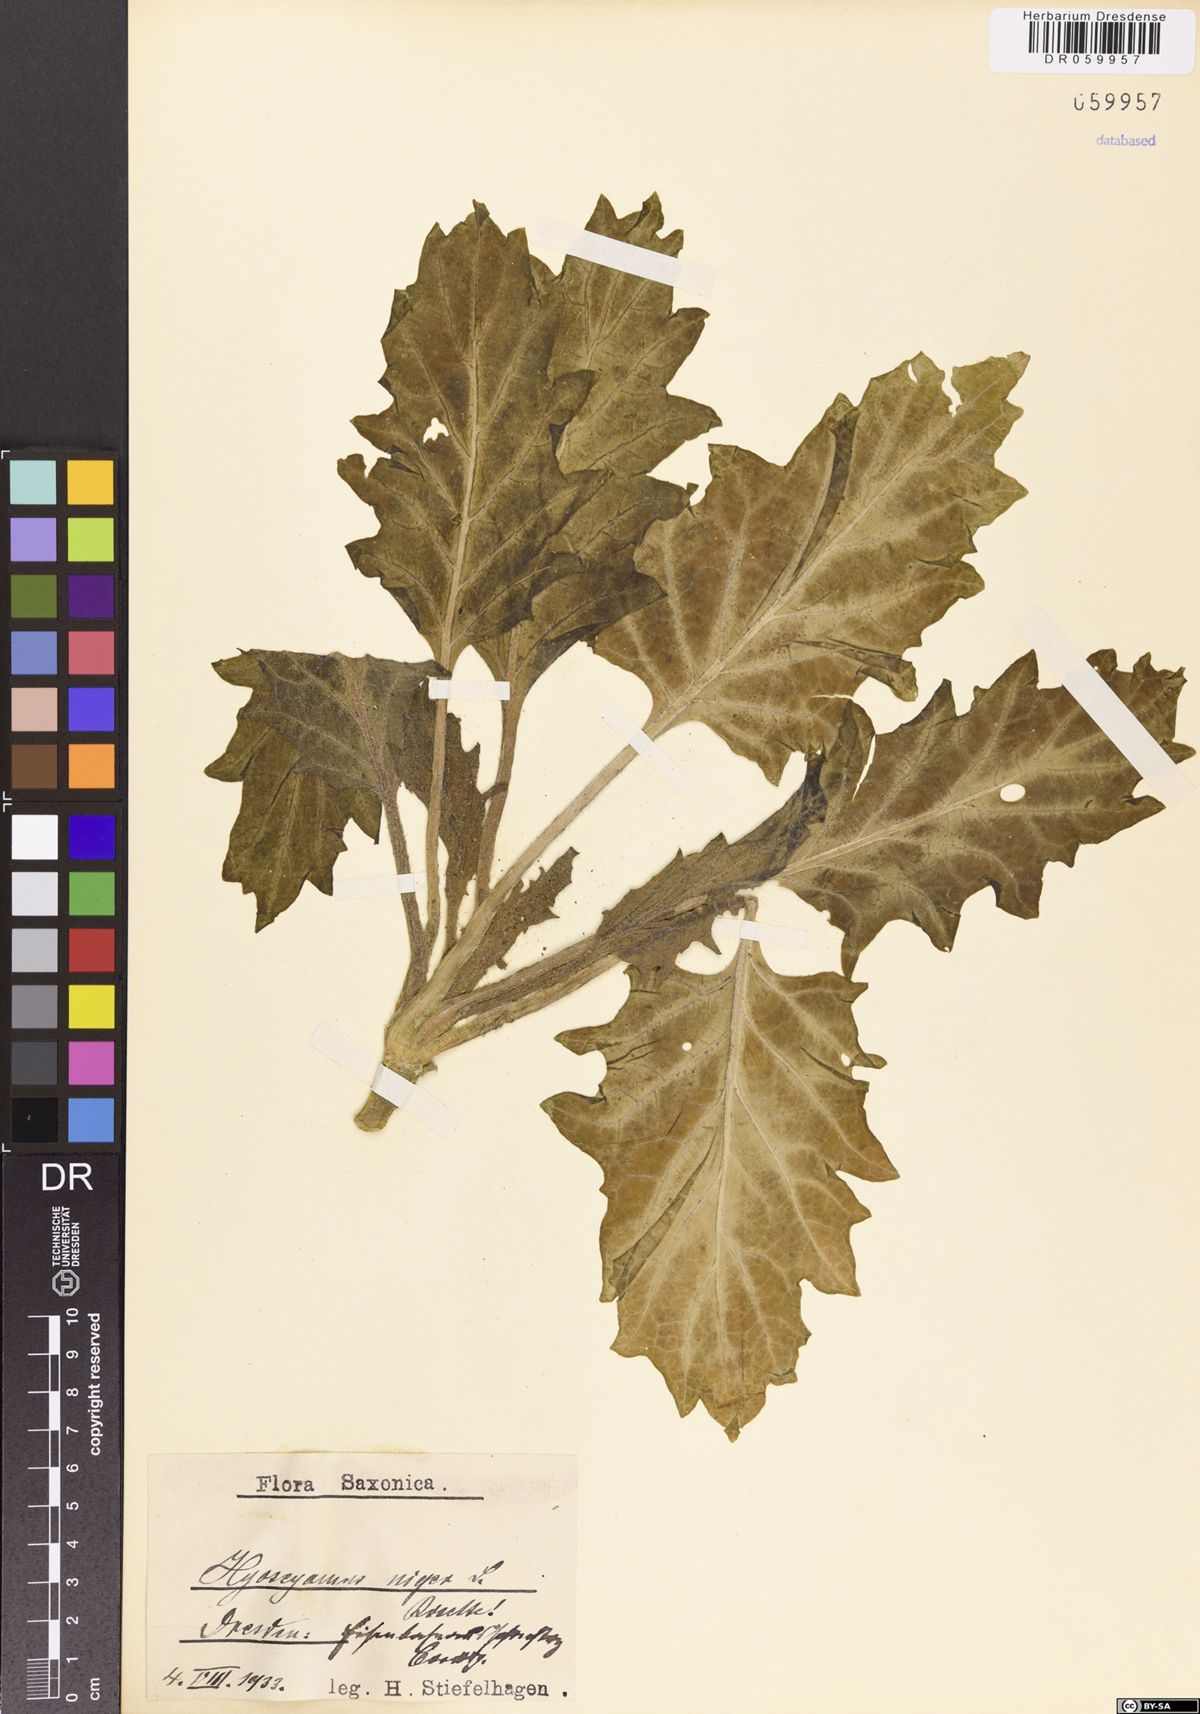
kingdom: Plantae
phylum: Tracheophyta
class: Magnoliopsida
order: Solanales
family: Solanaceae
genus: Hyoscyamus
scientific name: Hyoscyamus niger
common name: Henbane
